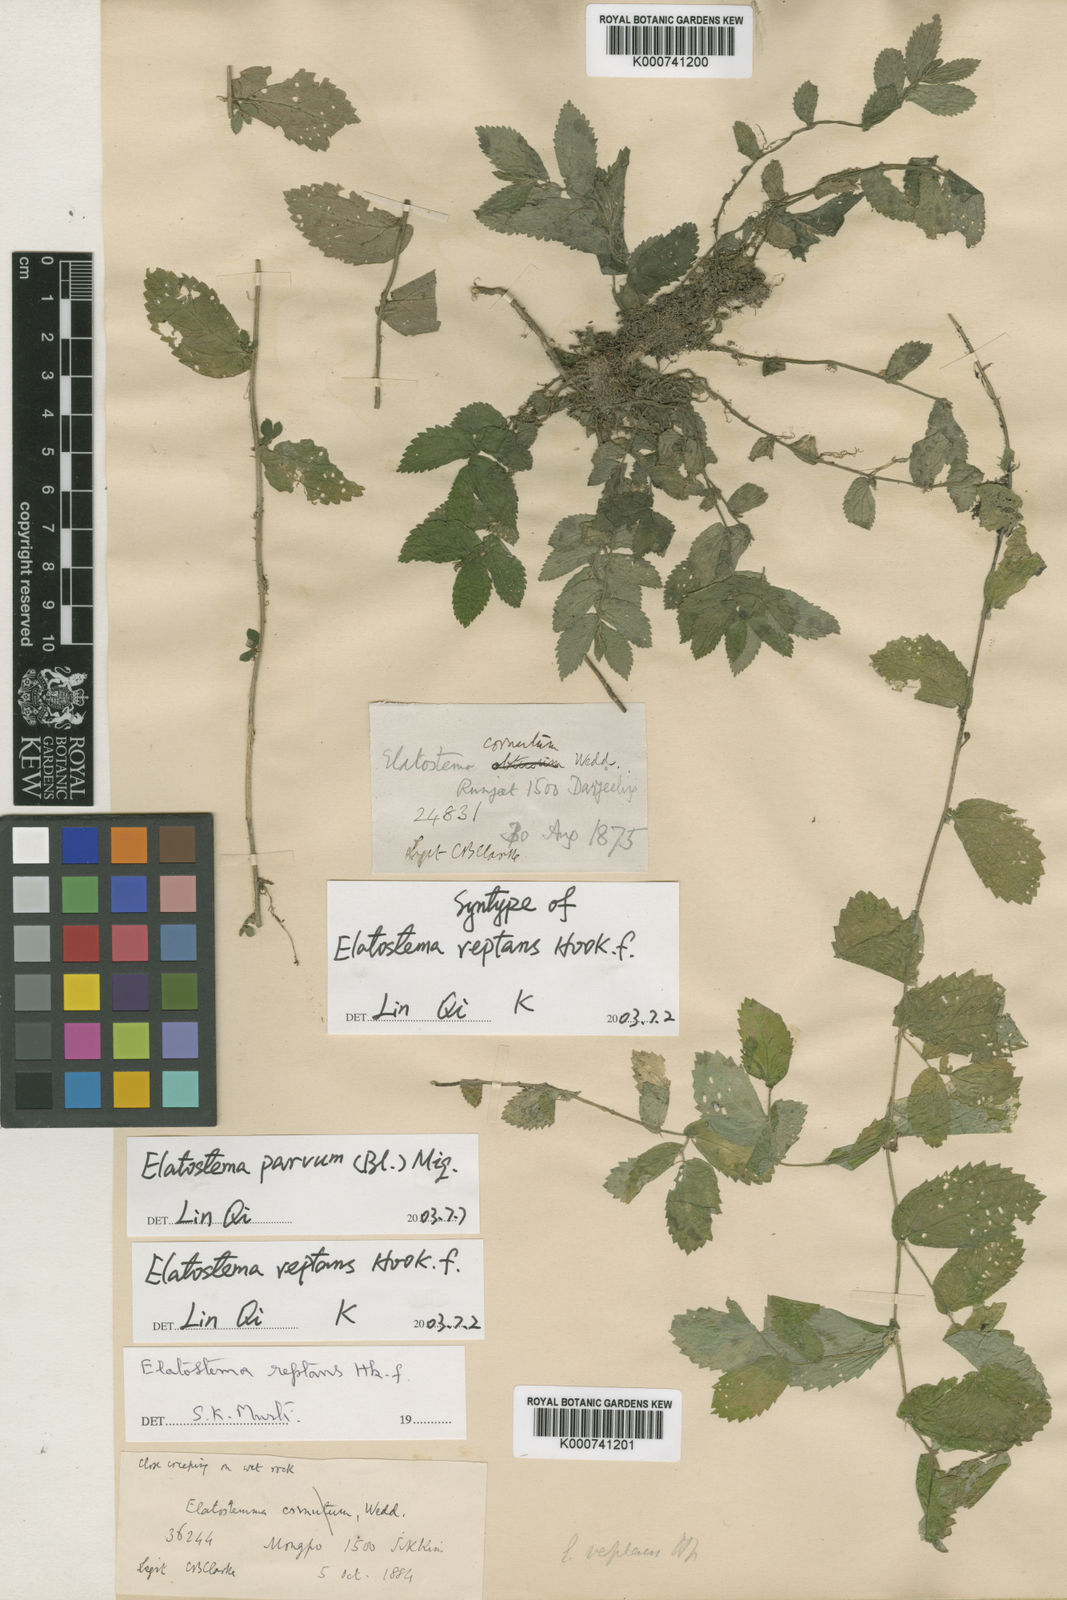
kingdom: Plantae
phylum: Tracheophyta
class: Magnoliopsida
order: Rosales
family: Urticaceae
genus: Elatostema
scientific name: Elatostema parvum
